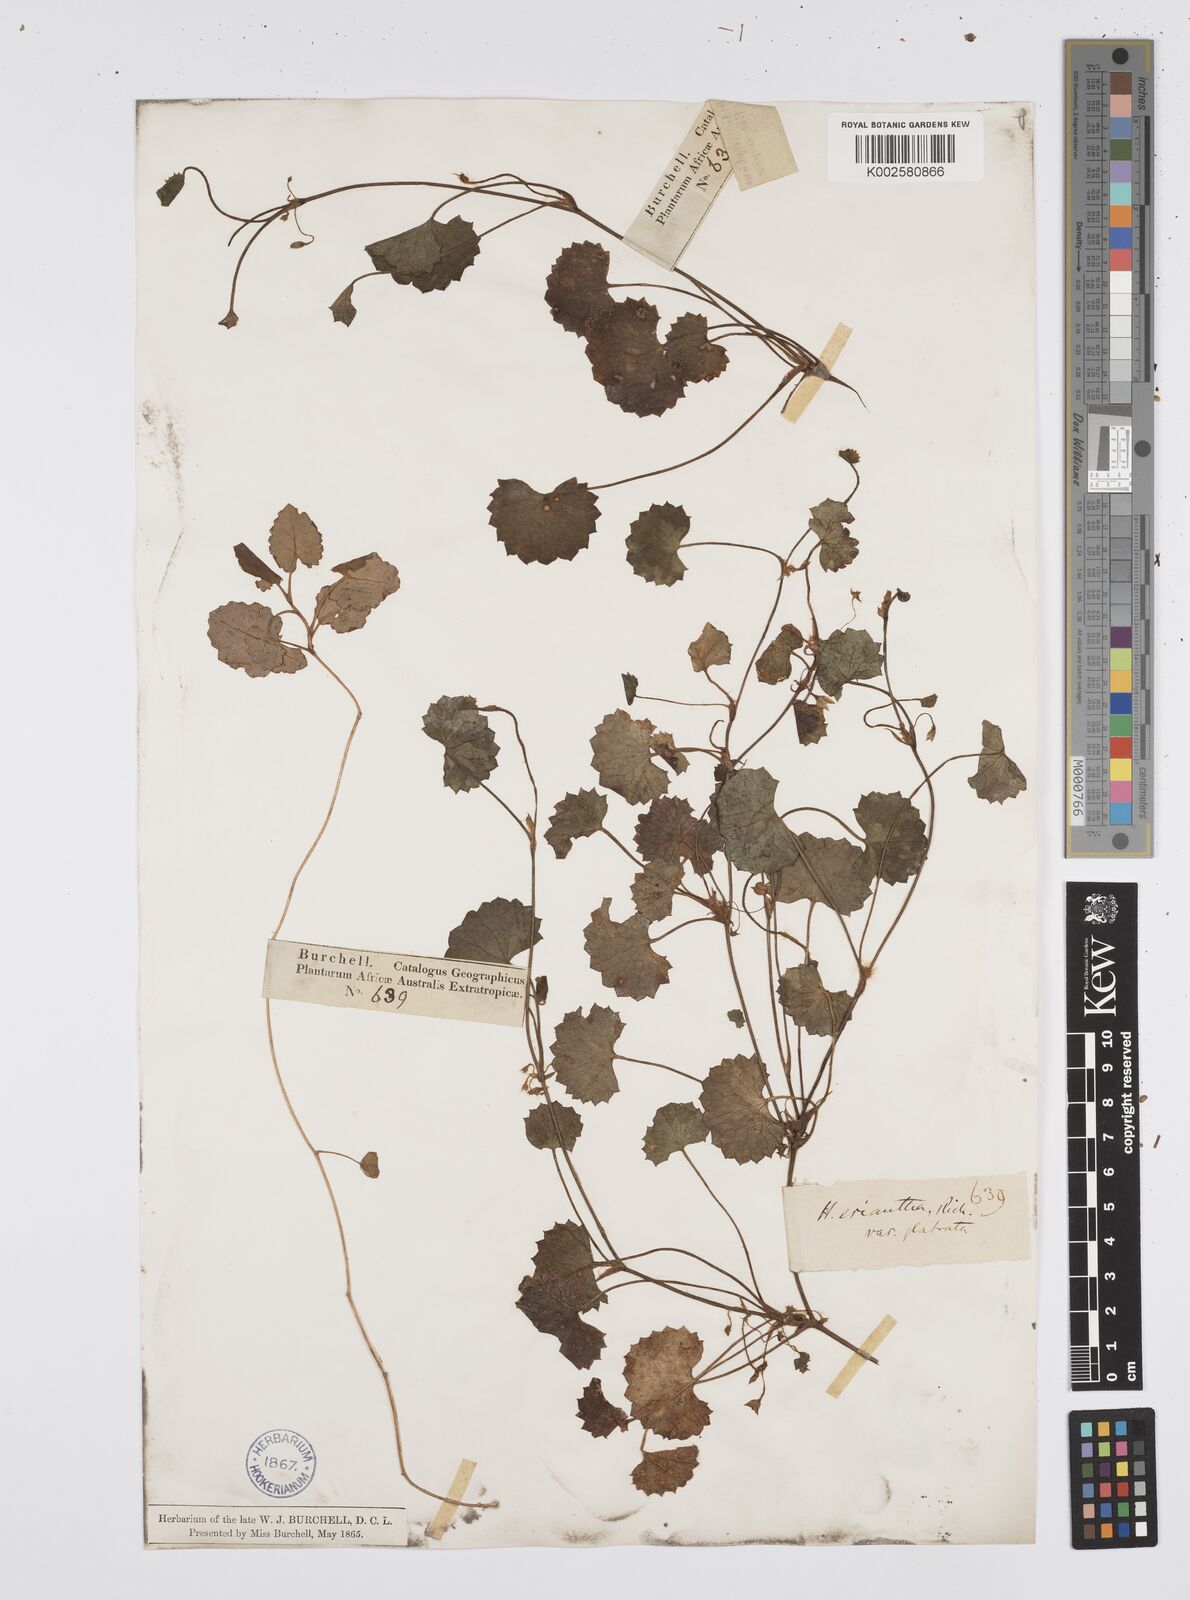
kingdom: Plantae
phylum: Tracheophyta
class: Magnoliopsida
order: Apiales
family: Apiaceae
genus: Centella
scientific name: Centella eriantha
